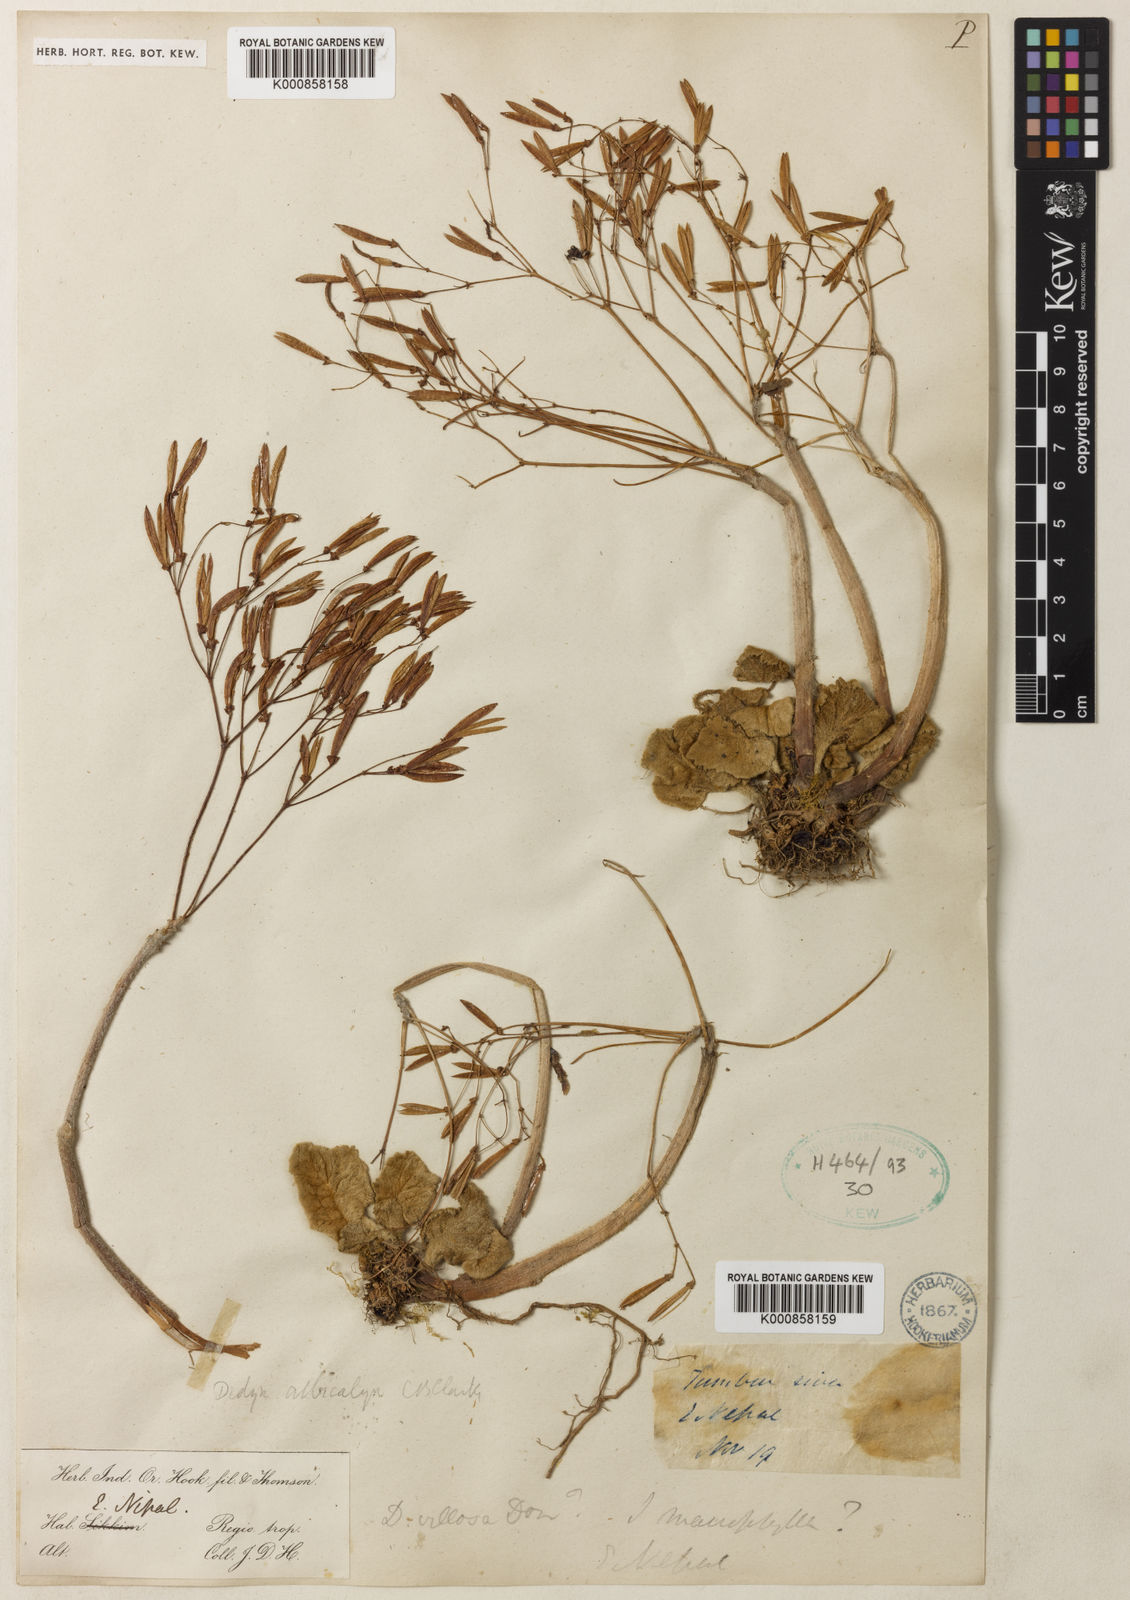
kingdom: Plantae
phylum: Tracheophyta
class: Magnoliopsida
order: Lamiales
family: Gesneriaceae
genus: Henckelia
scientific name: Henckelia
